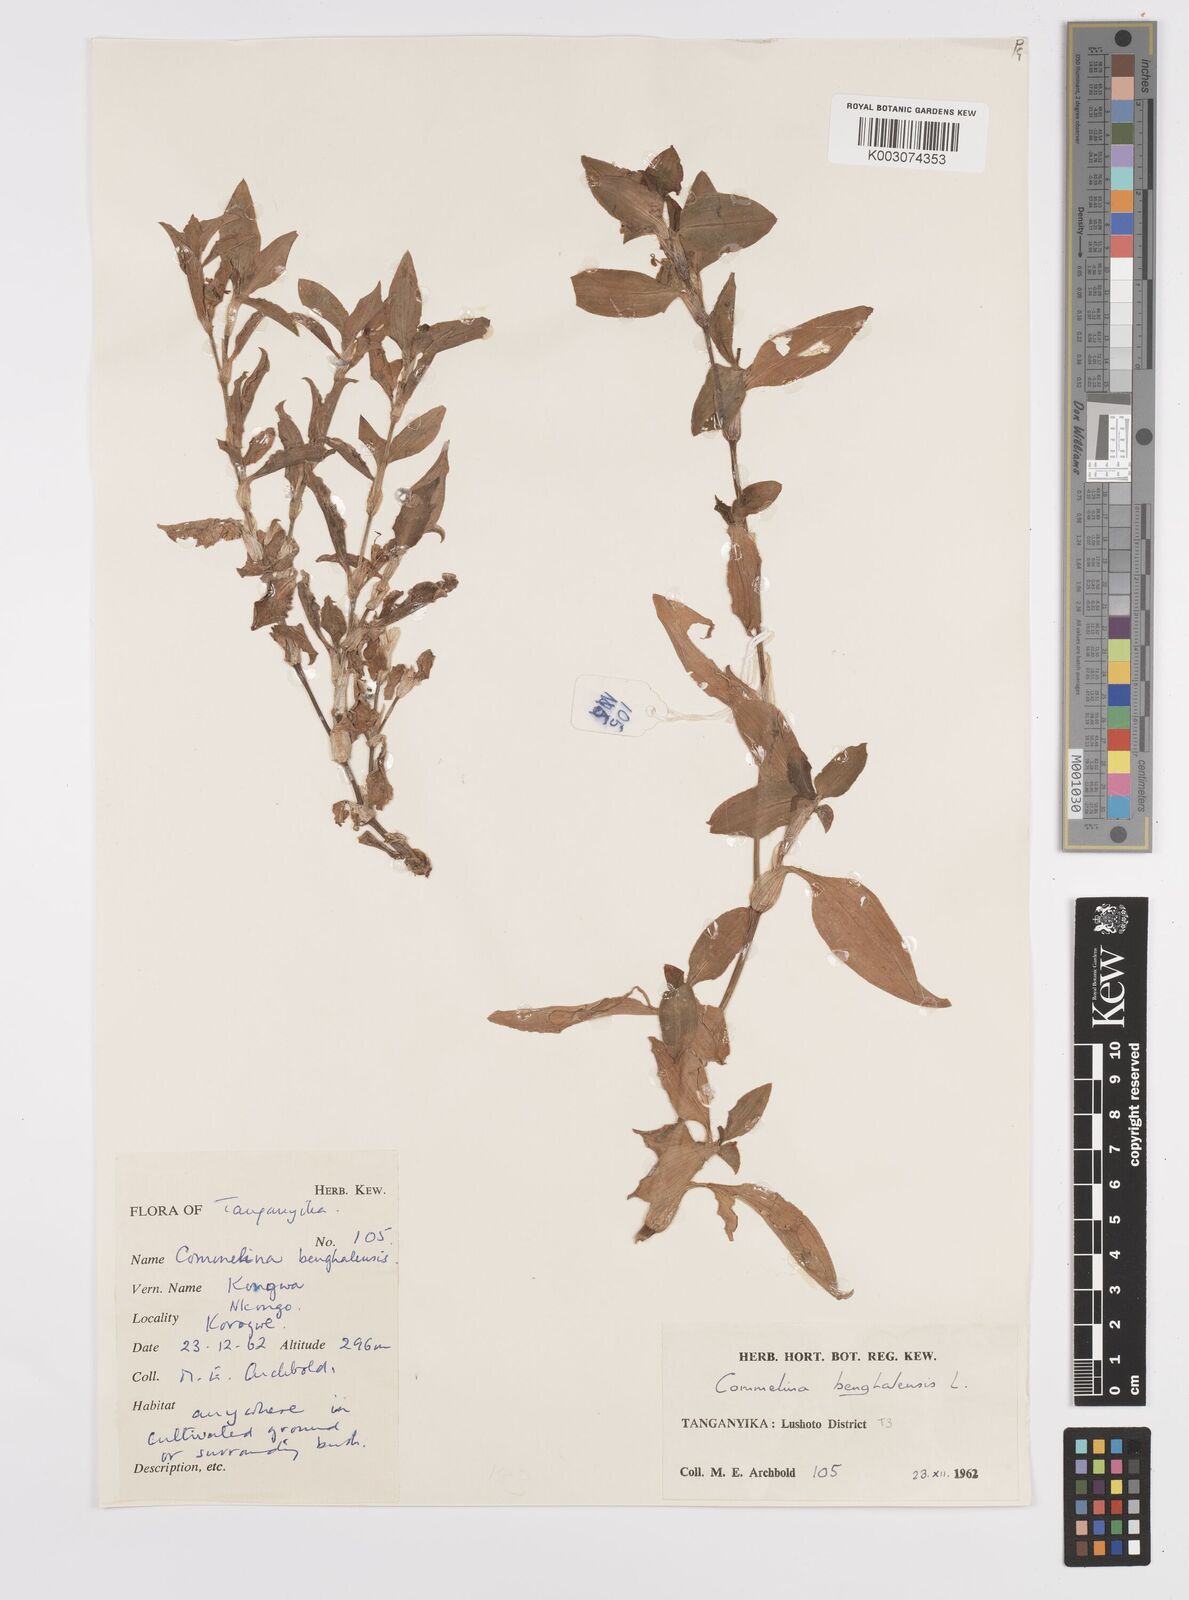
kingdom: Plantae
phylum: Tracheophyta
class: Liliopsida
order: Commelinales
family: Commelinaceae
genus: Commelina
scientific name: Commelina benghalensis
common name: Jio
